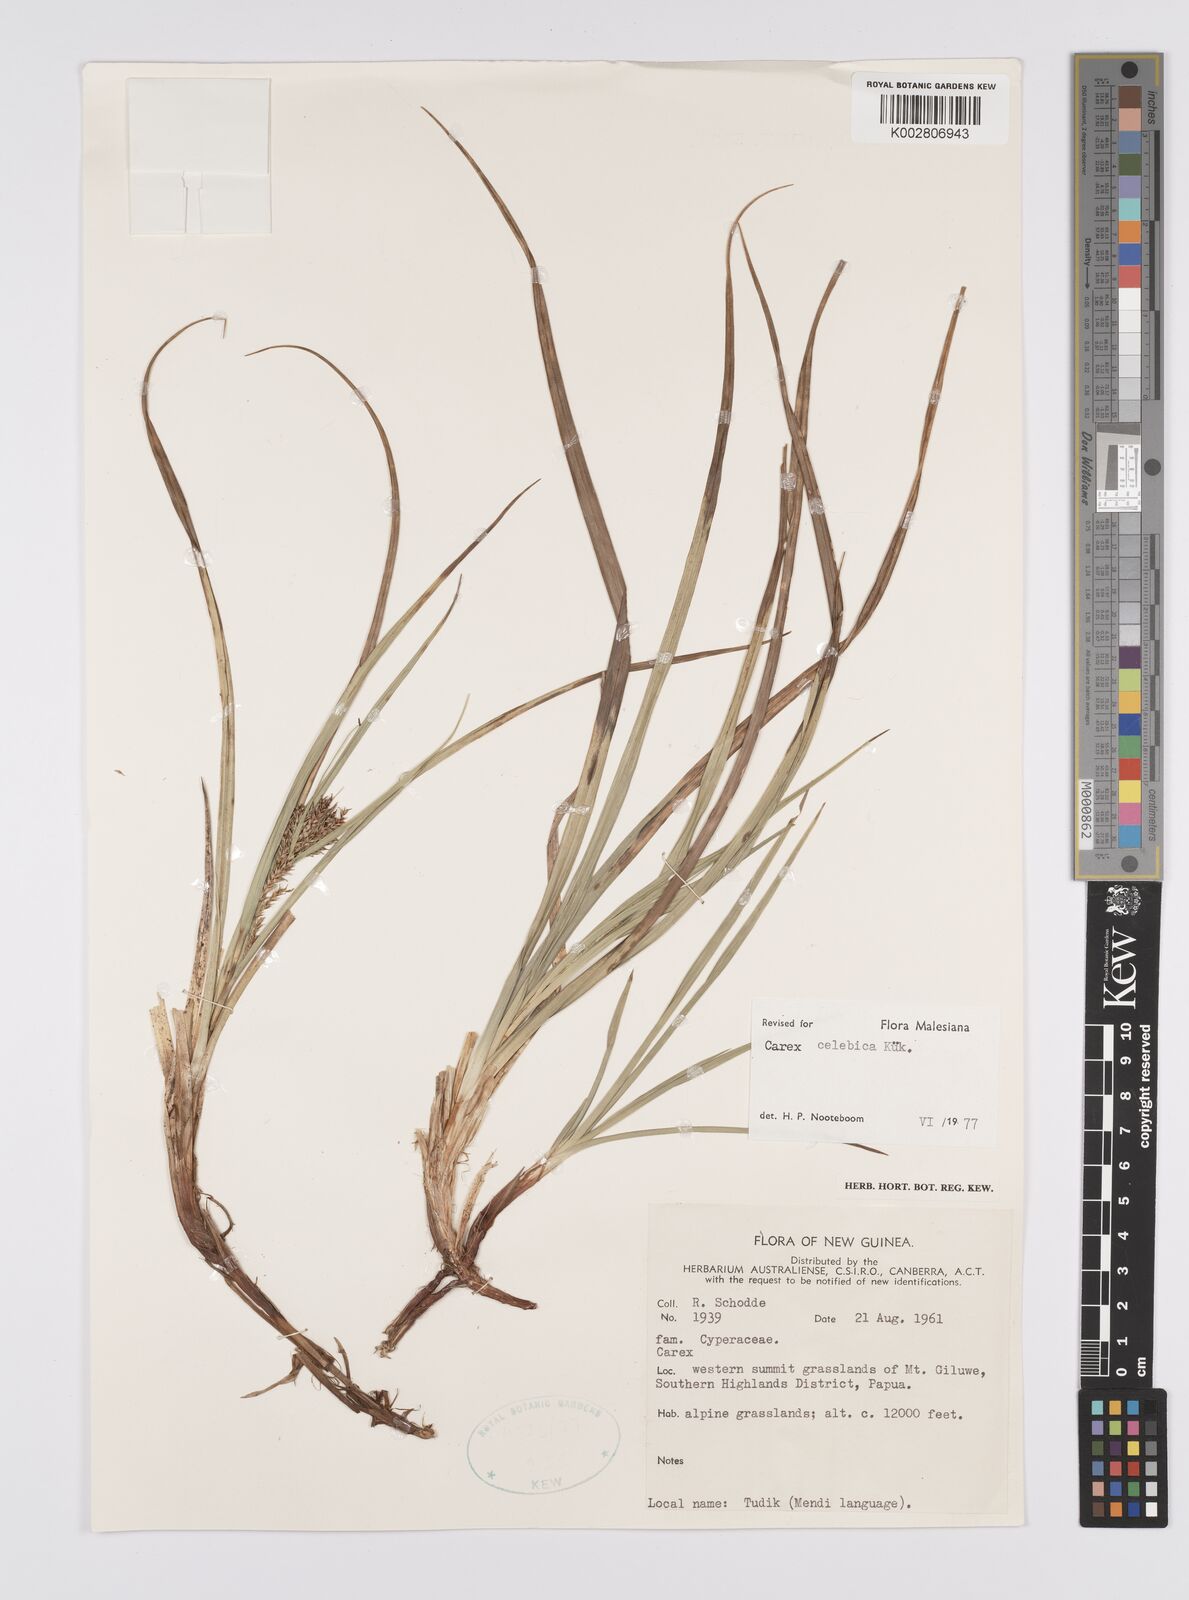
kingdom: Plantae
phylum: Tracheophyta
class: Liliopsida
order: Poales
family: Cyperaceae
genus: Carex
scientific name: Carex celebica
